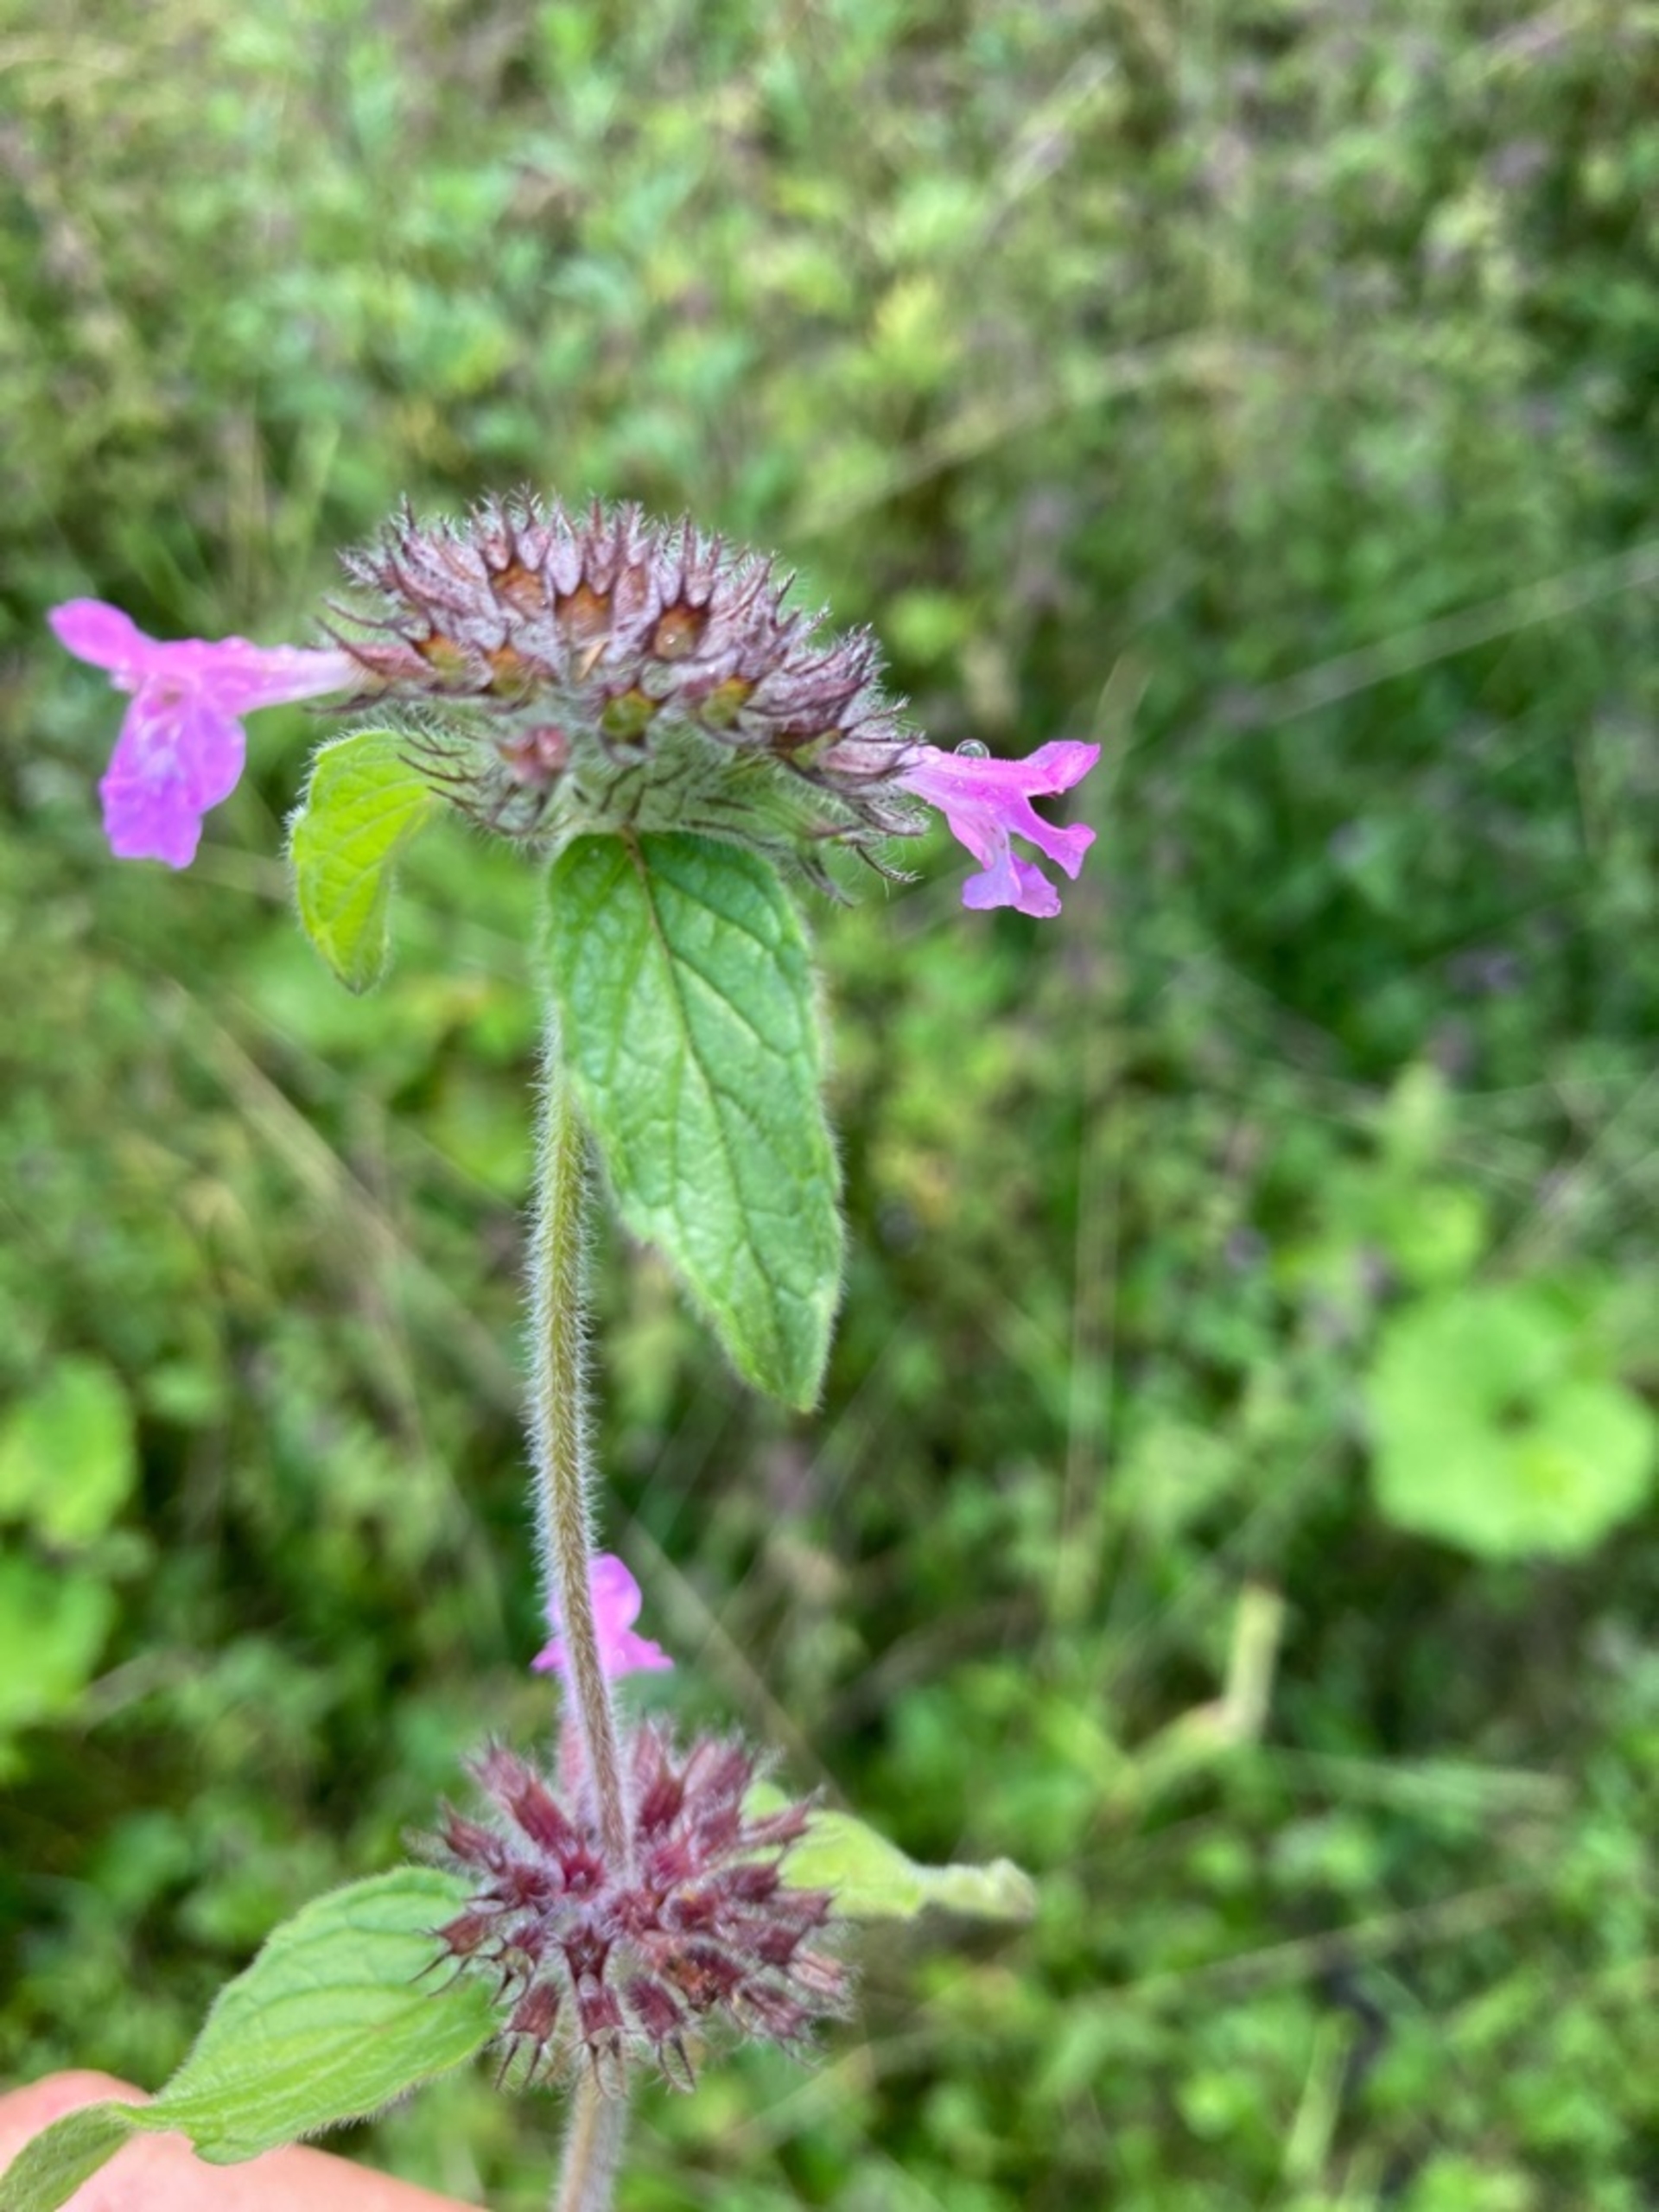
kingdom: Plantae
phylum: Tracheophyta
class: Magnoliopsida
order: Lamiales
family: Lamiaceae
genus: Clinopodium
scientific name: Clinopodium vulgare
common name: Kransbørste
